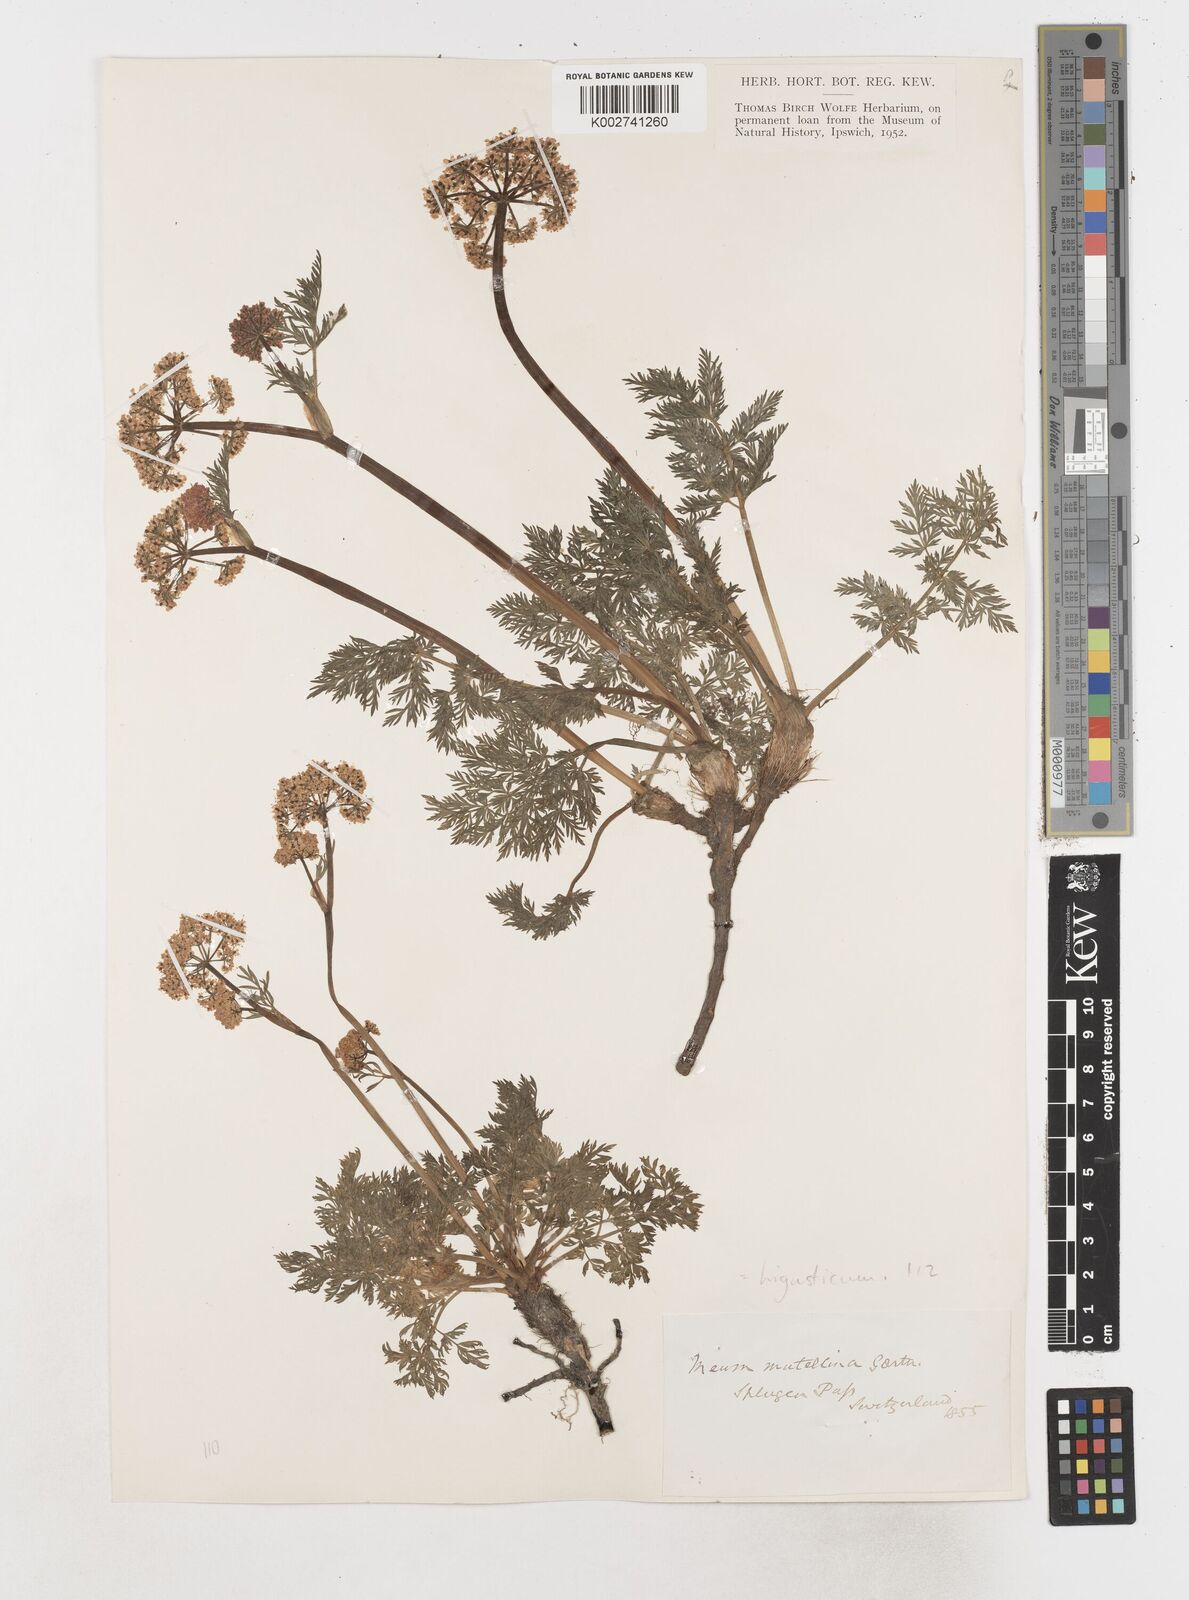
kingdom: Plantae
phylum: Tracheophyta
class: Magnoliopsida
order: Apiales
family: Apiaceae
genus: Mutellina
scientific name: Mutellina adonidifolia
